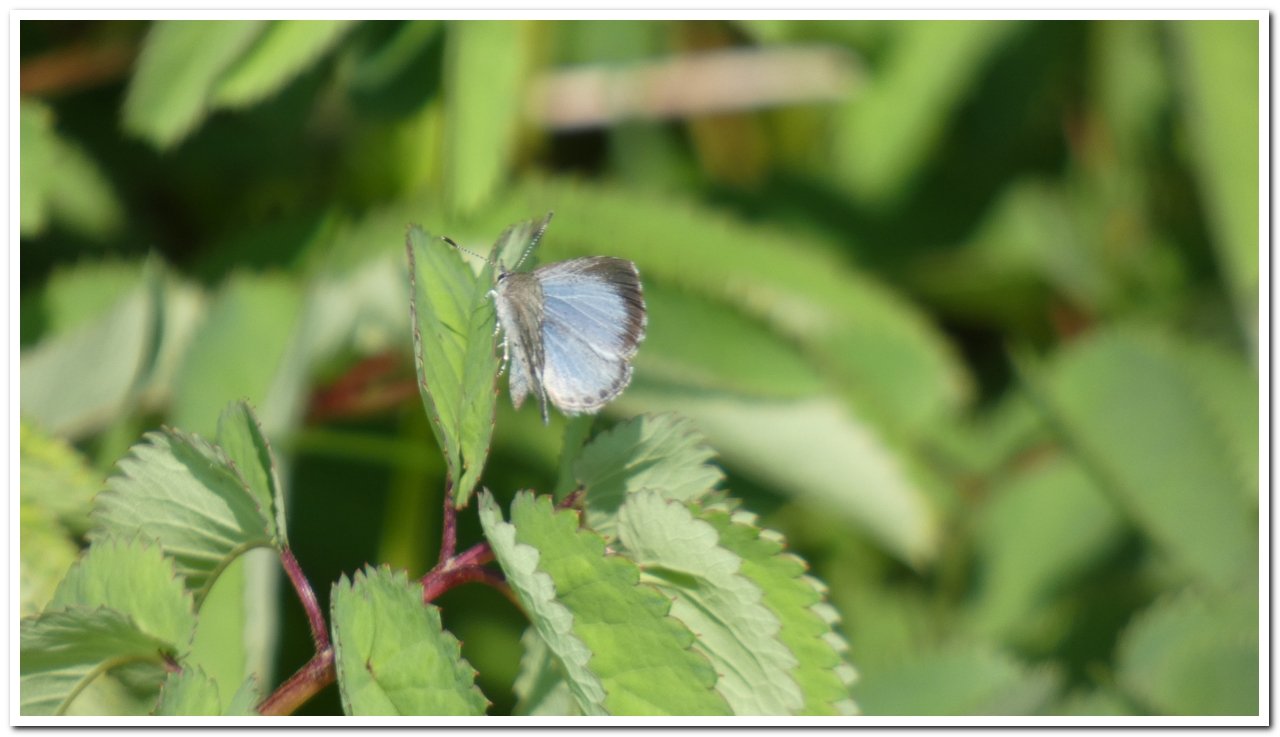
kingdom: Animalia
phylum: Arthropoda
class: Insecta
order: Lepidoptera
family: Lycaenidae
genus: Celastrina
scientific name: Celastrina lucia
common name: Northern Spring Azure
